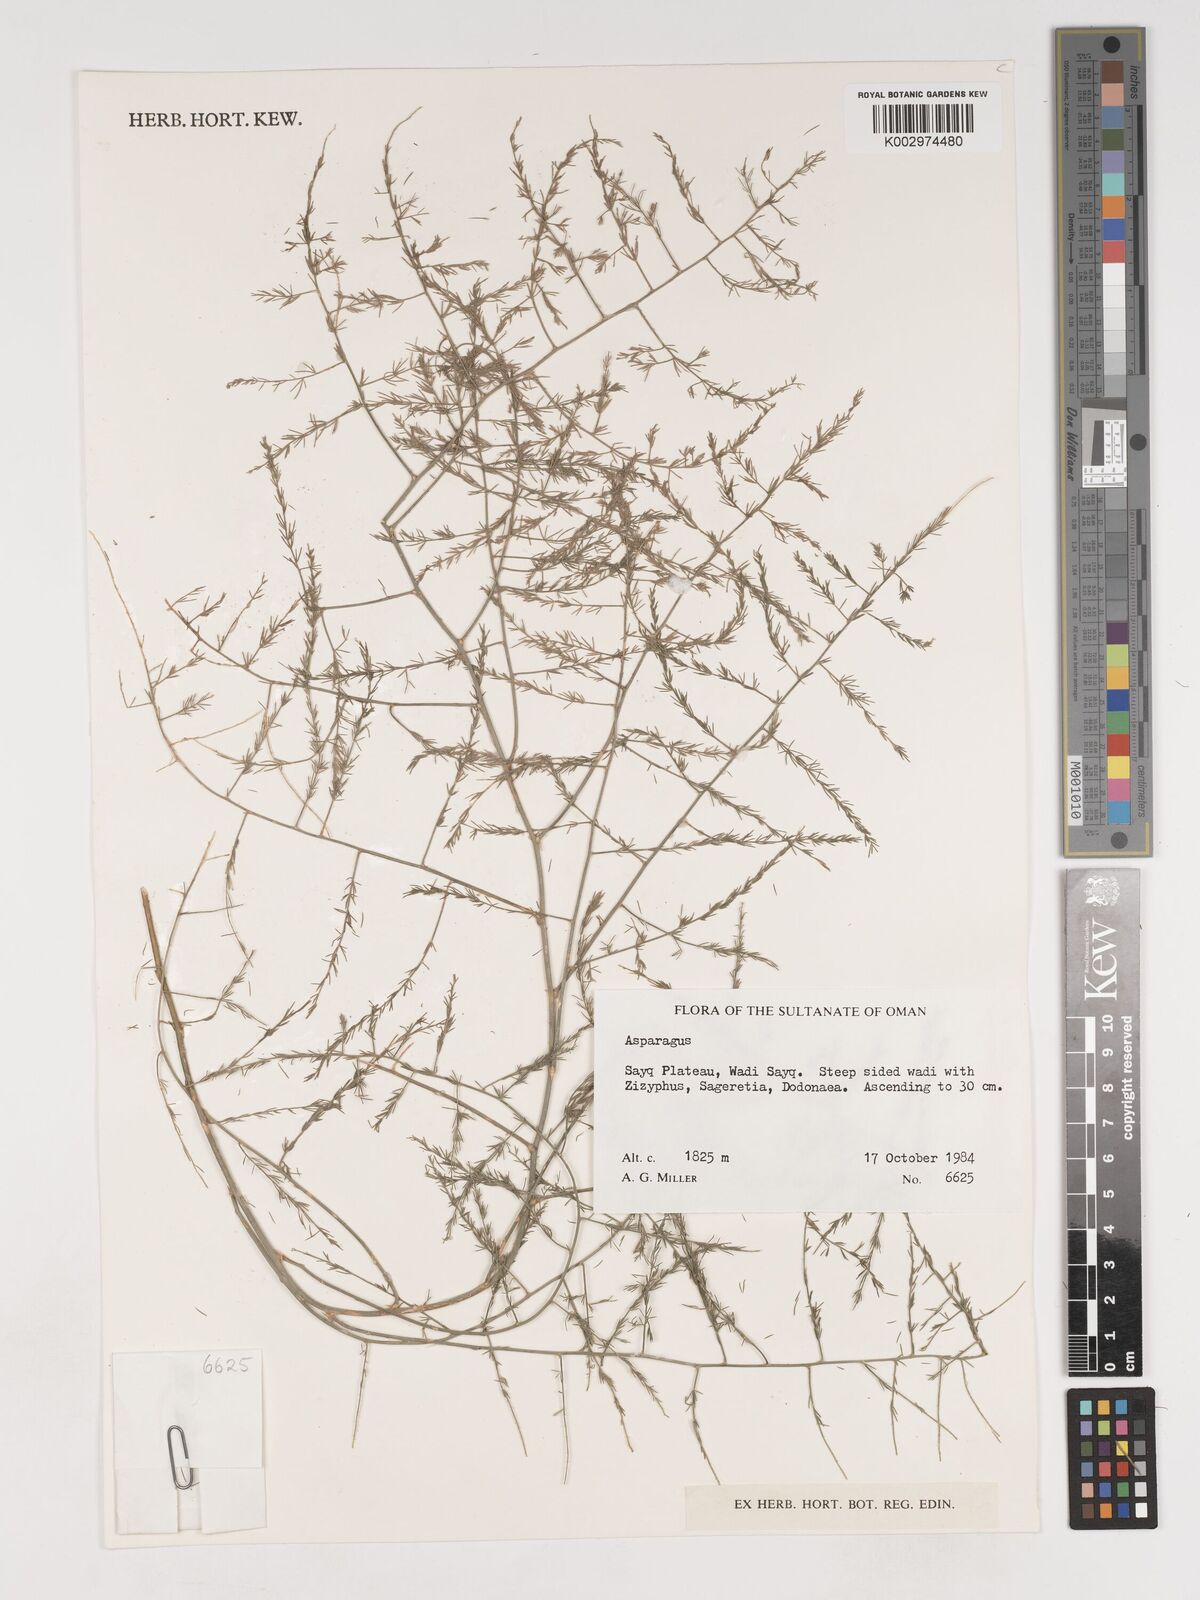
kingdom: Plantae
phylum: Tracheophyta
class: Liliopsida
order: Asparagales
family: Asparagaceae
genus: Asparagus
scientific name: Asparagus
